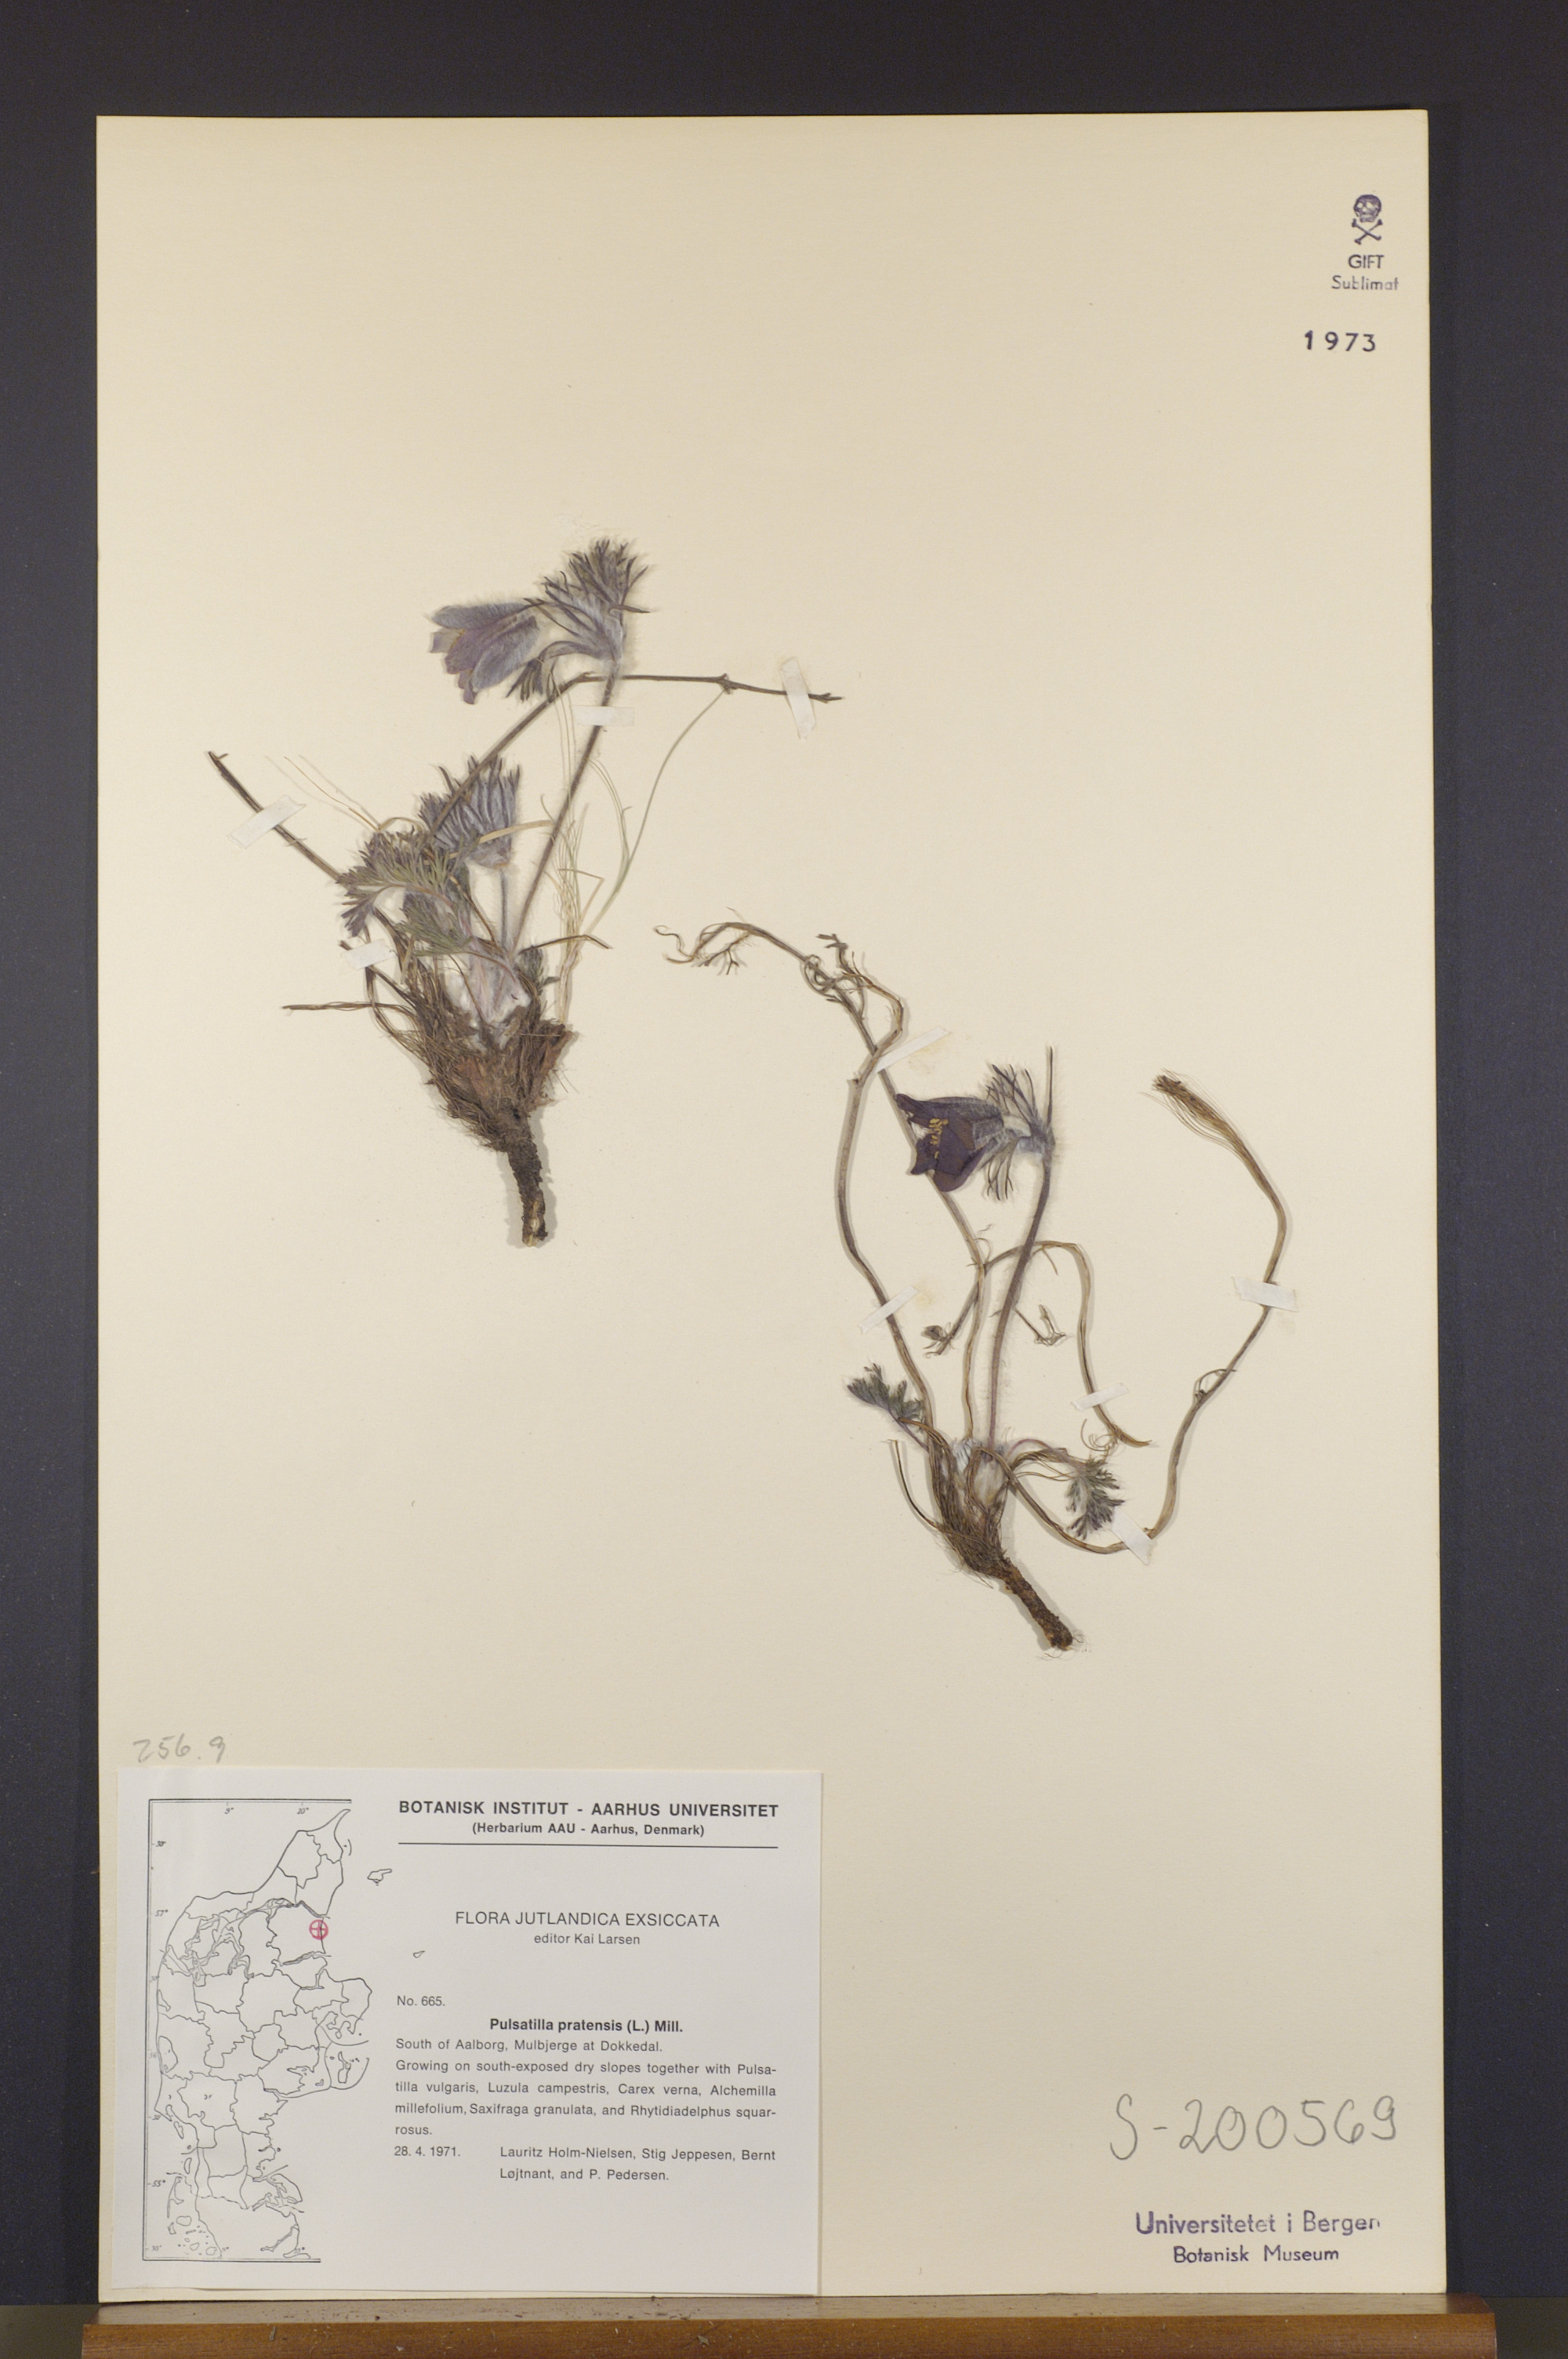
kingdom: Plantae
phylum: Tracheophyta
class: Magnoliopsida
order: Ranunculales
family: Ranunculaceae
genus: Pulsatilla
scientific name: Pulsatilla pratensis
